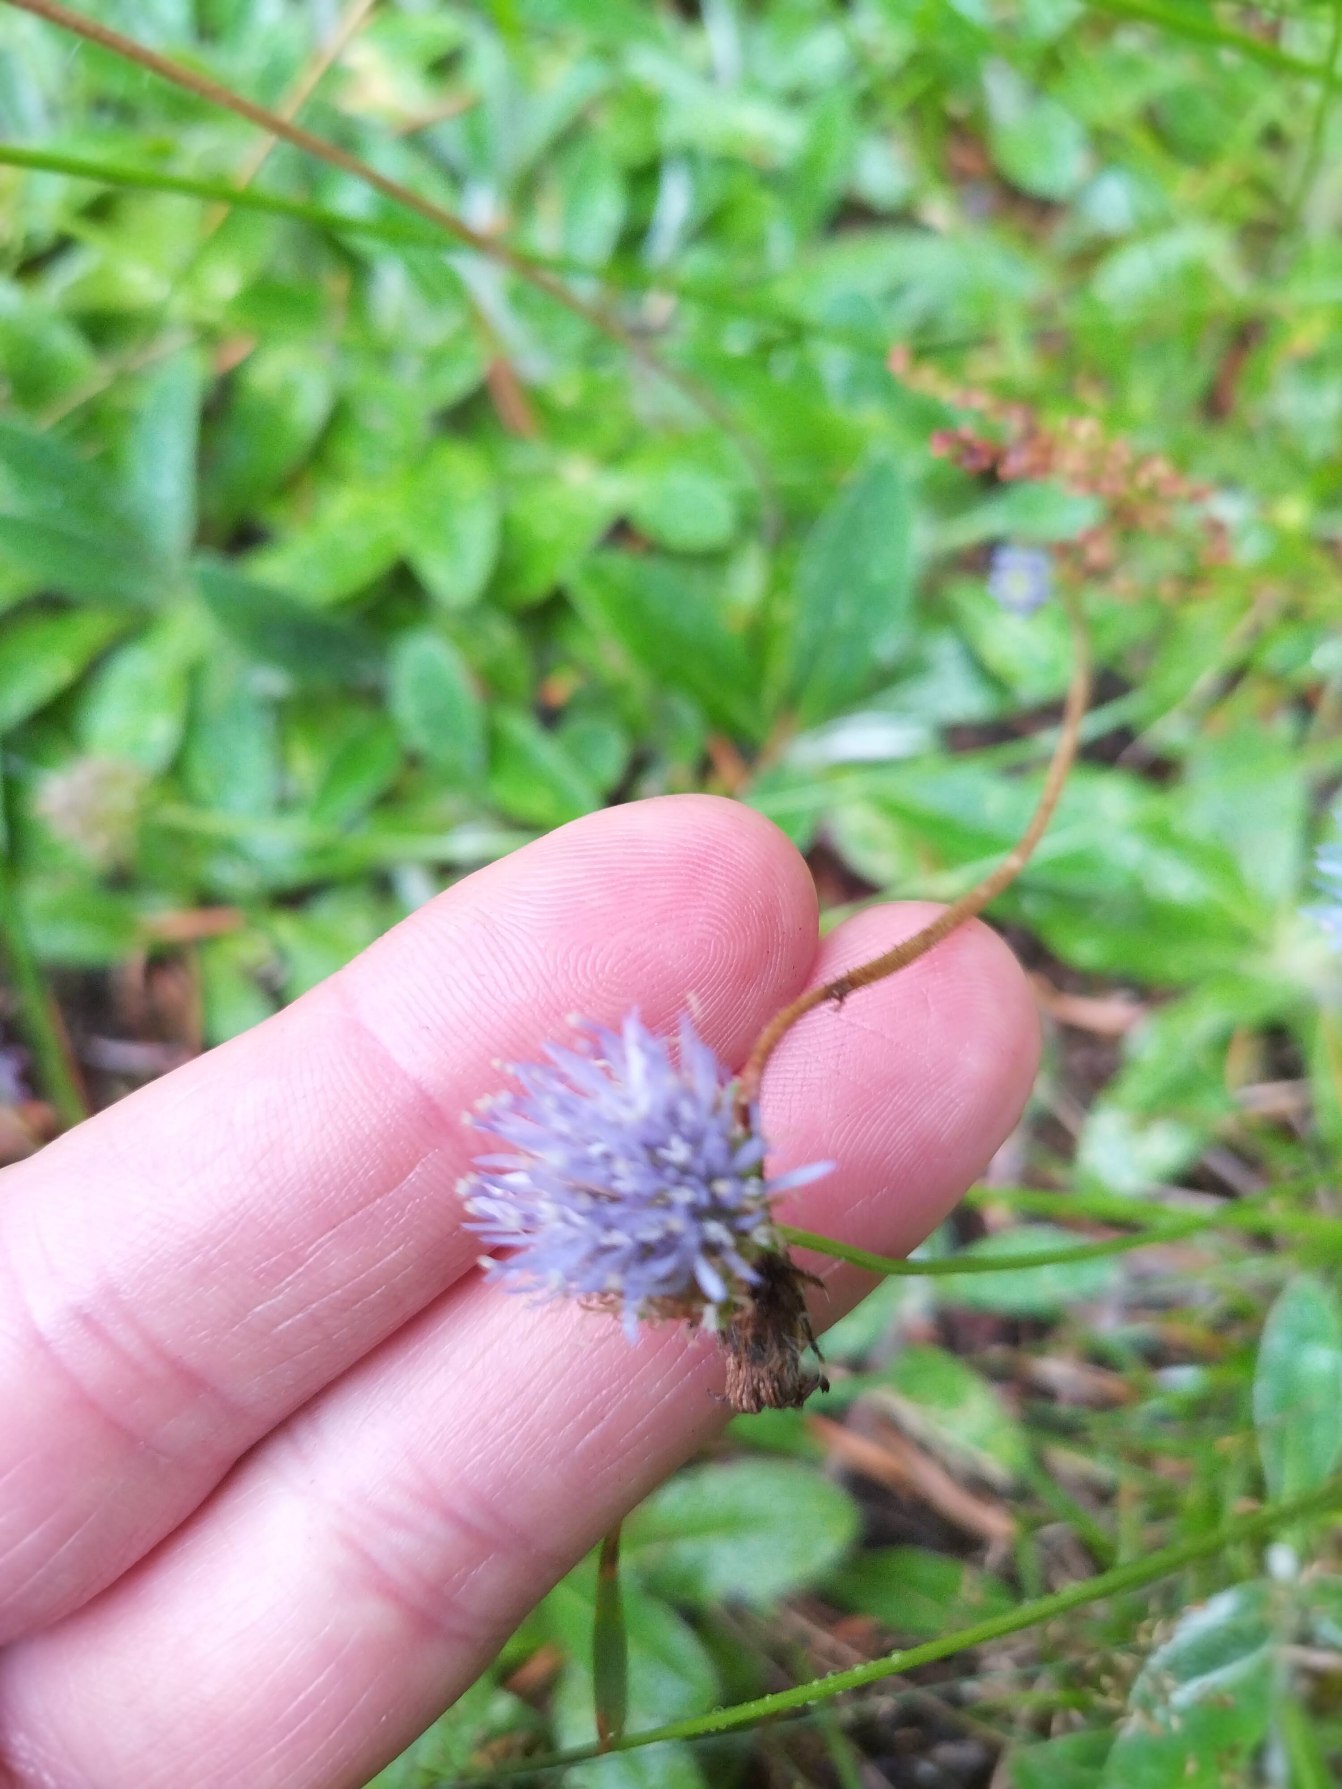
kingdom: Plantae
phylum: Tracheophyta
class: Magnoliopsida
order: Asterales
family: Campanulaceae
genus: Jasione
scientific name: Jasione montana
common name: Blåmunke
